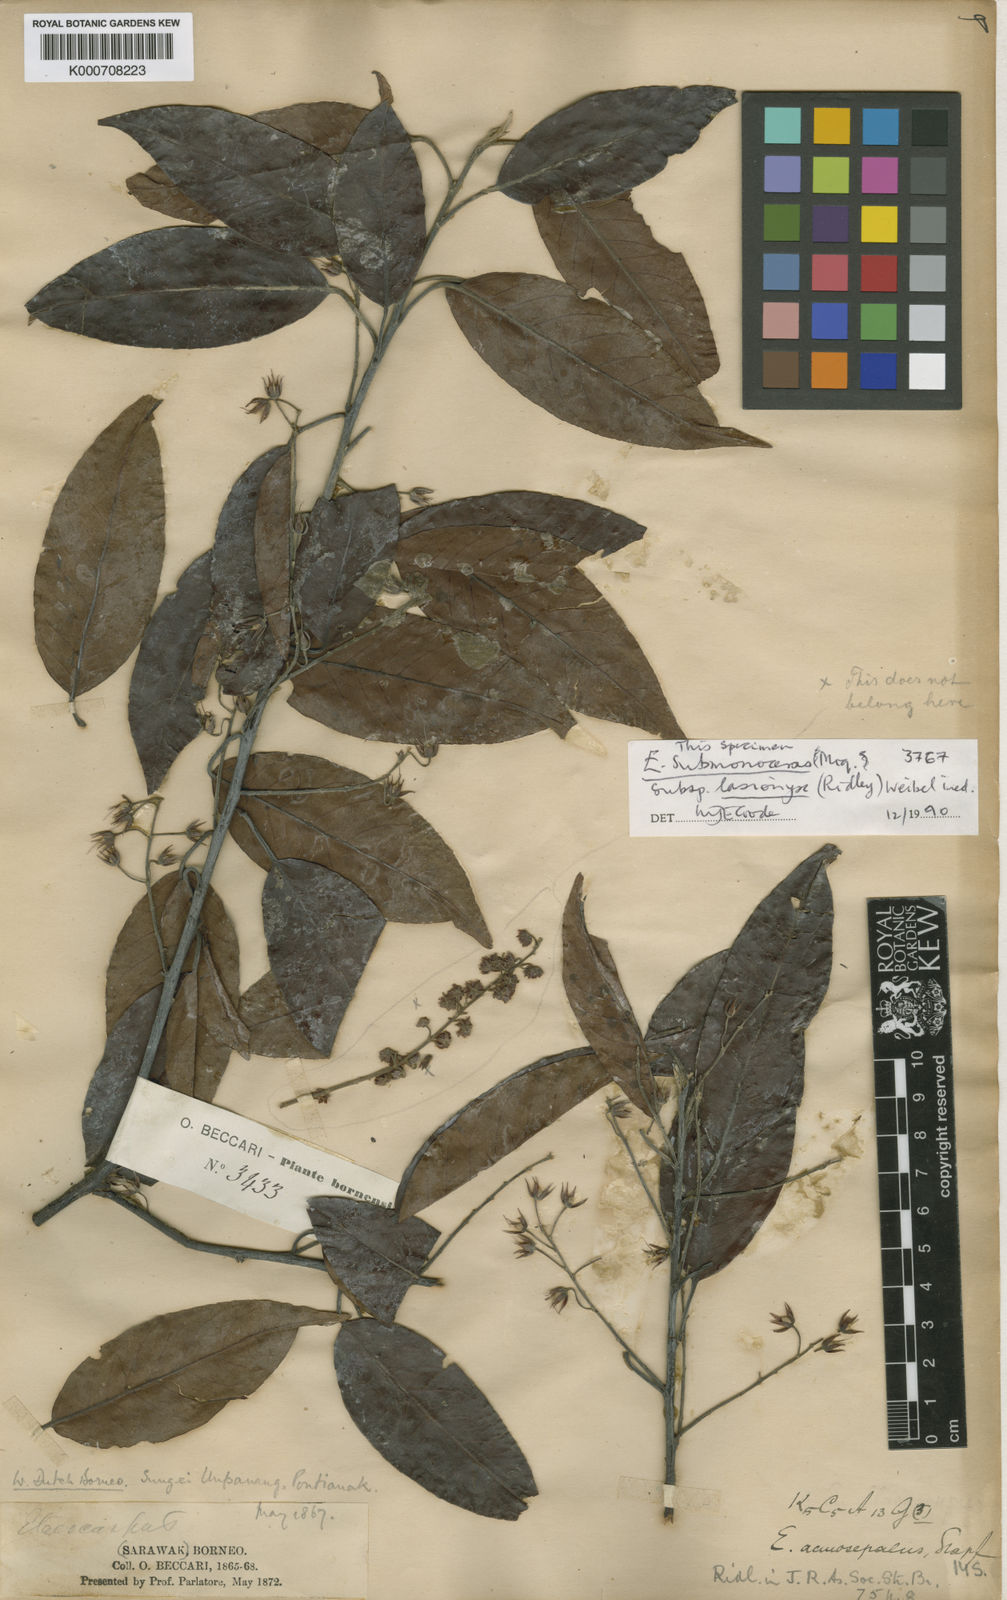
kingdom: Plantae
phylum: Tracheophyta
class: Magnoliopsida
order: Oxalidales
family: Elaeocarpaceae
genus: Elaeocarpus
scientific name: Elaeocarpus submonoceras
